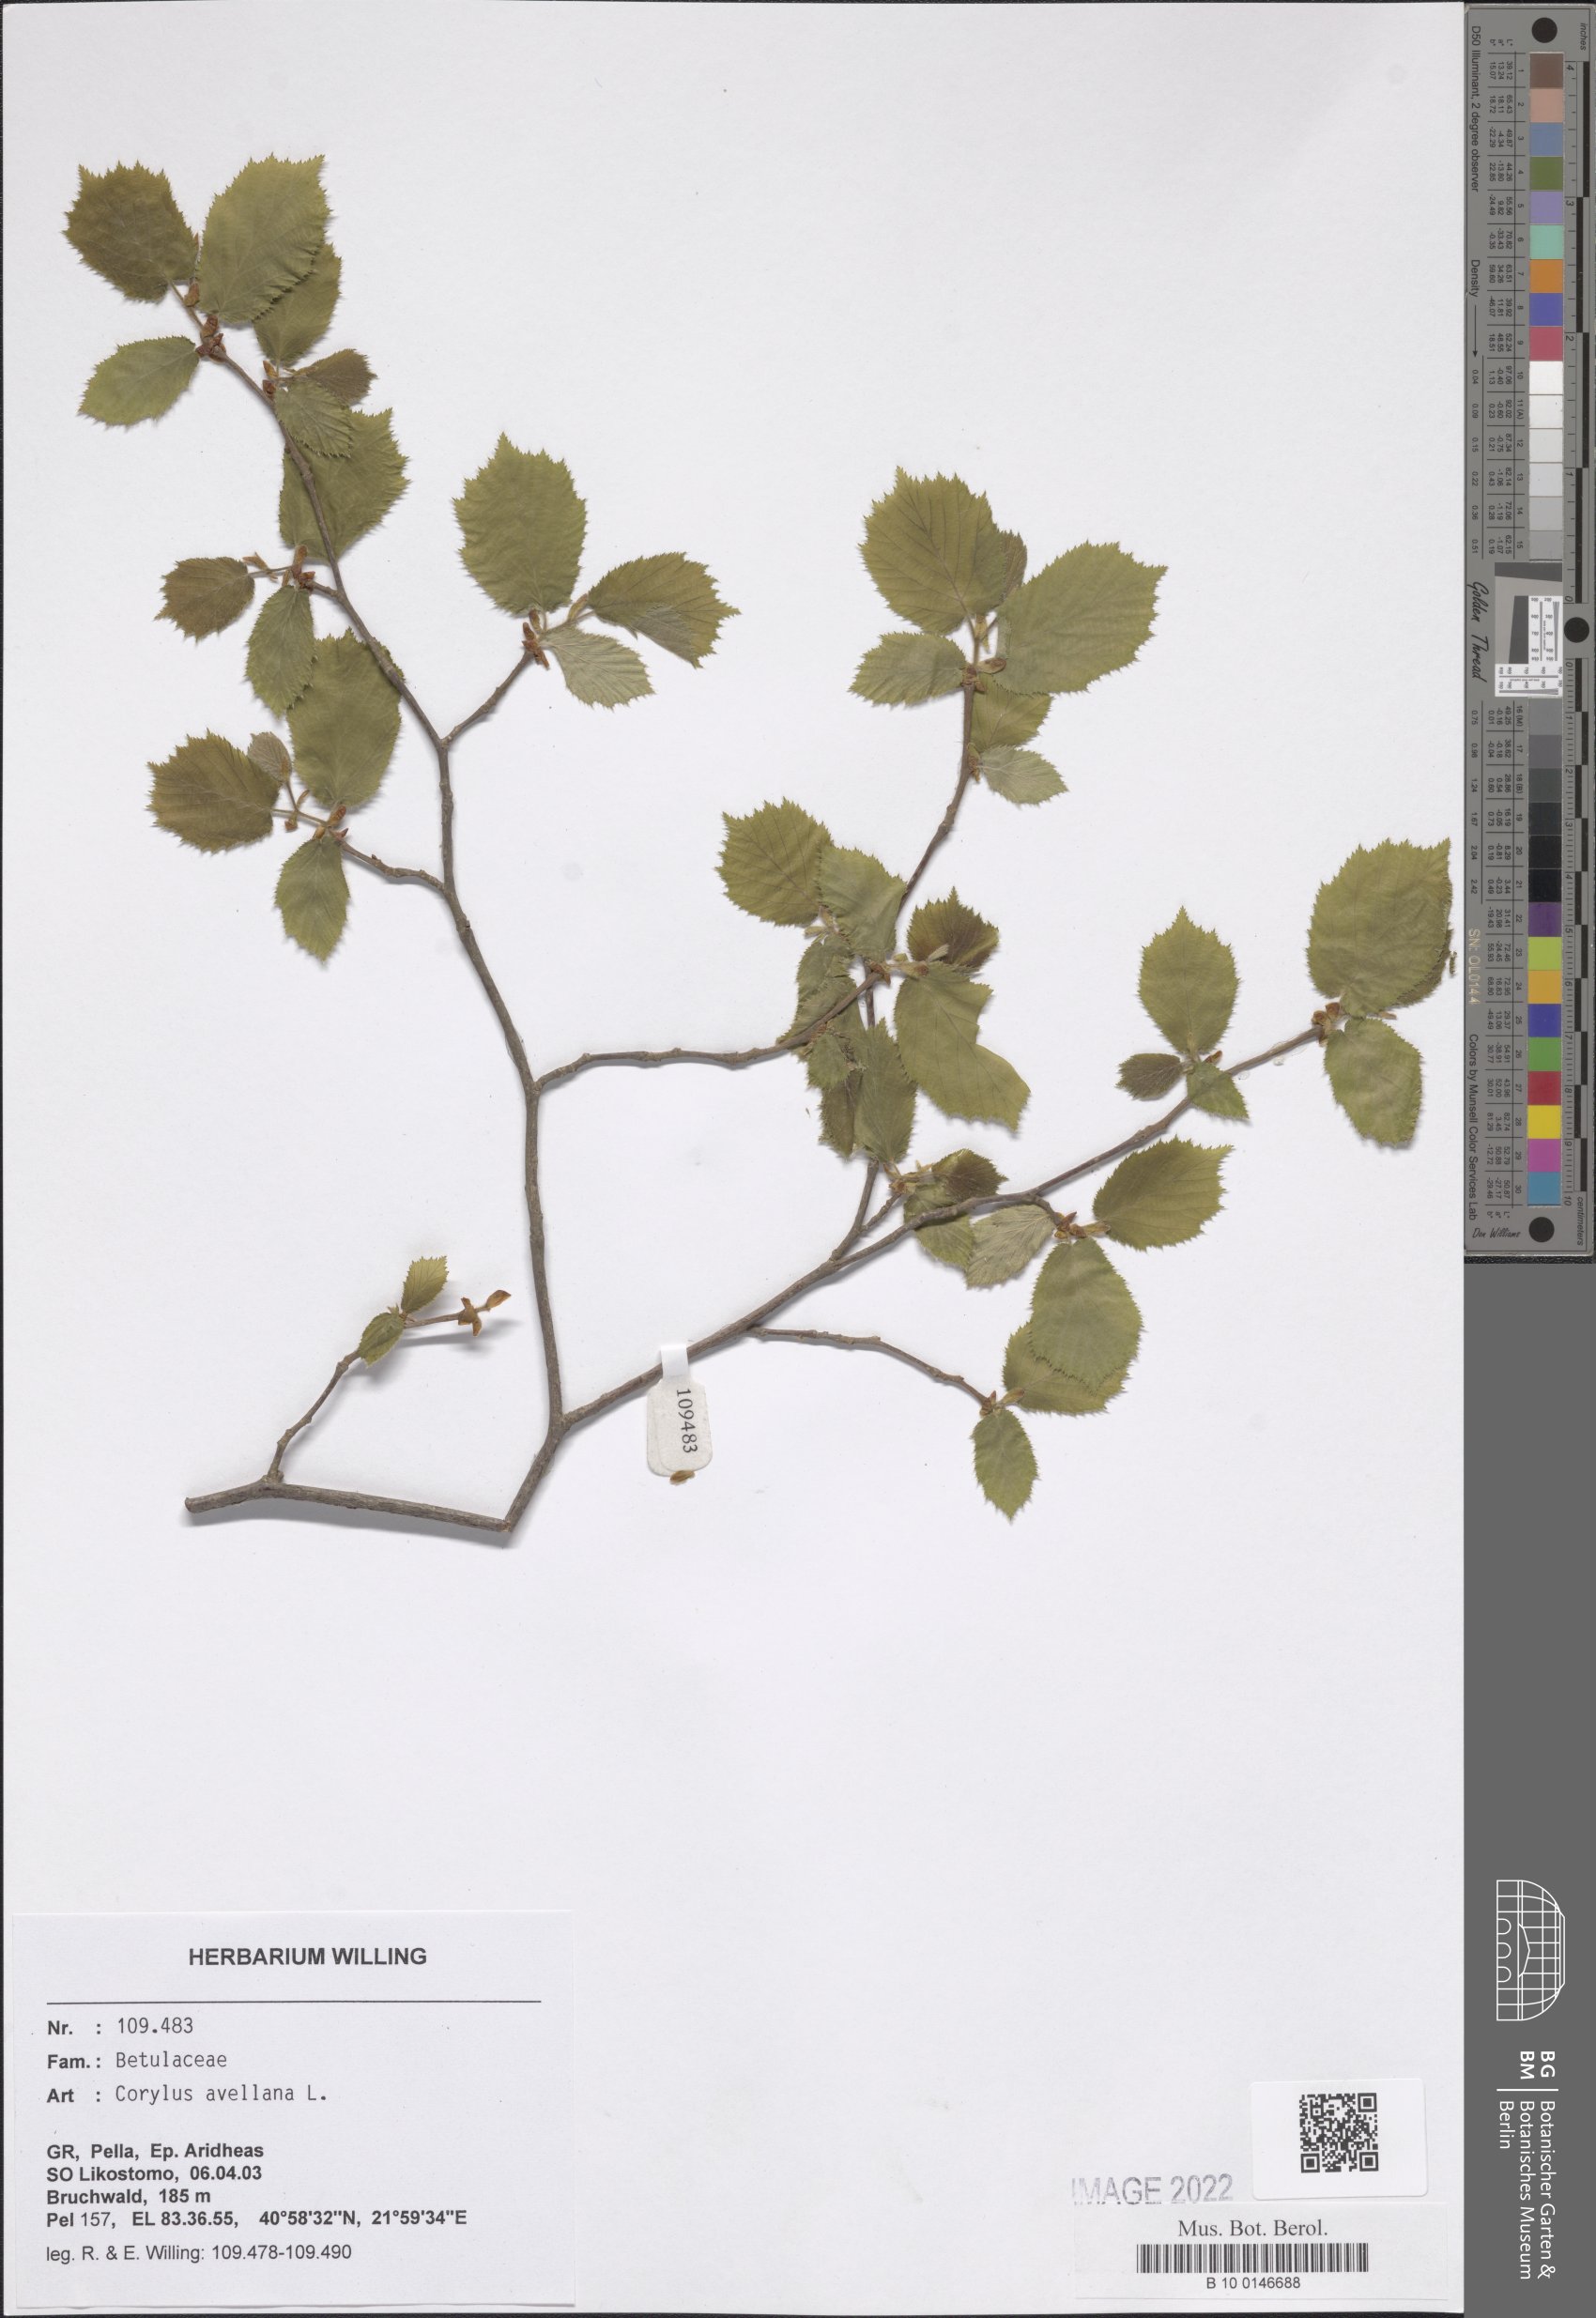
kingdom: Plantae
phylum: Tracheophyta
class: Magnoliopsida
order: Fagales
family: Betulaceae
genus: Corylus
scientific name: Corylus avellana
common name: European hazel
